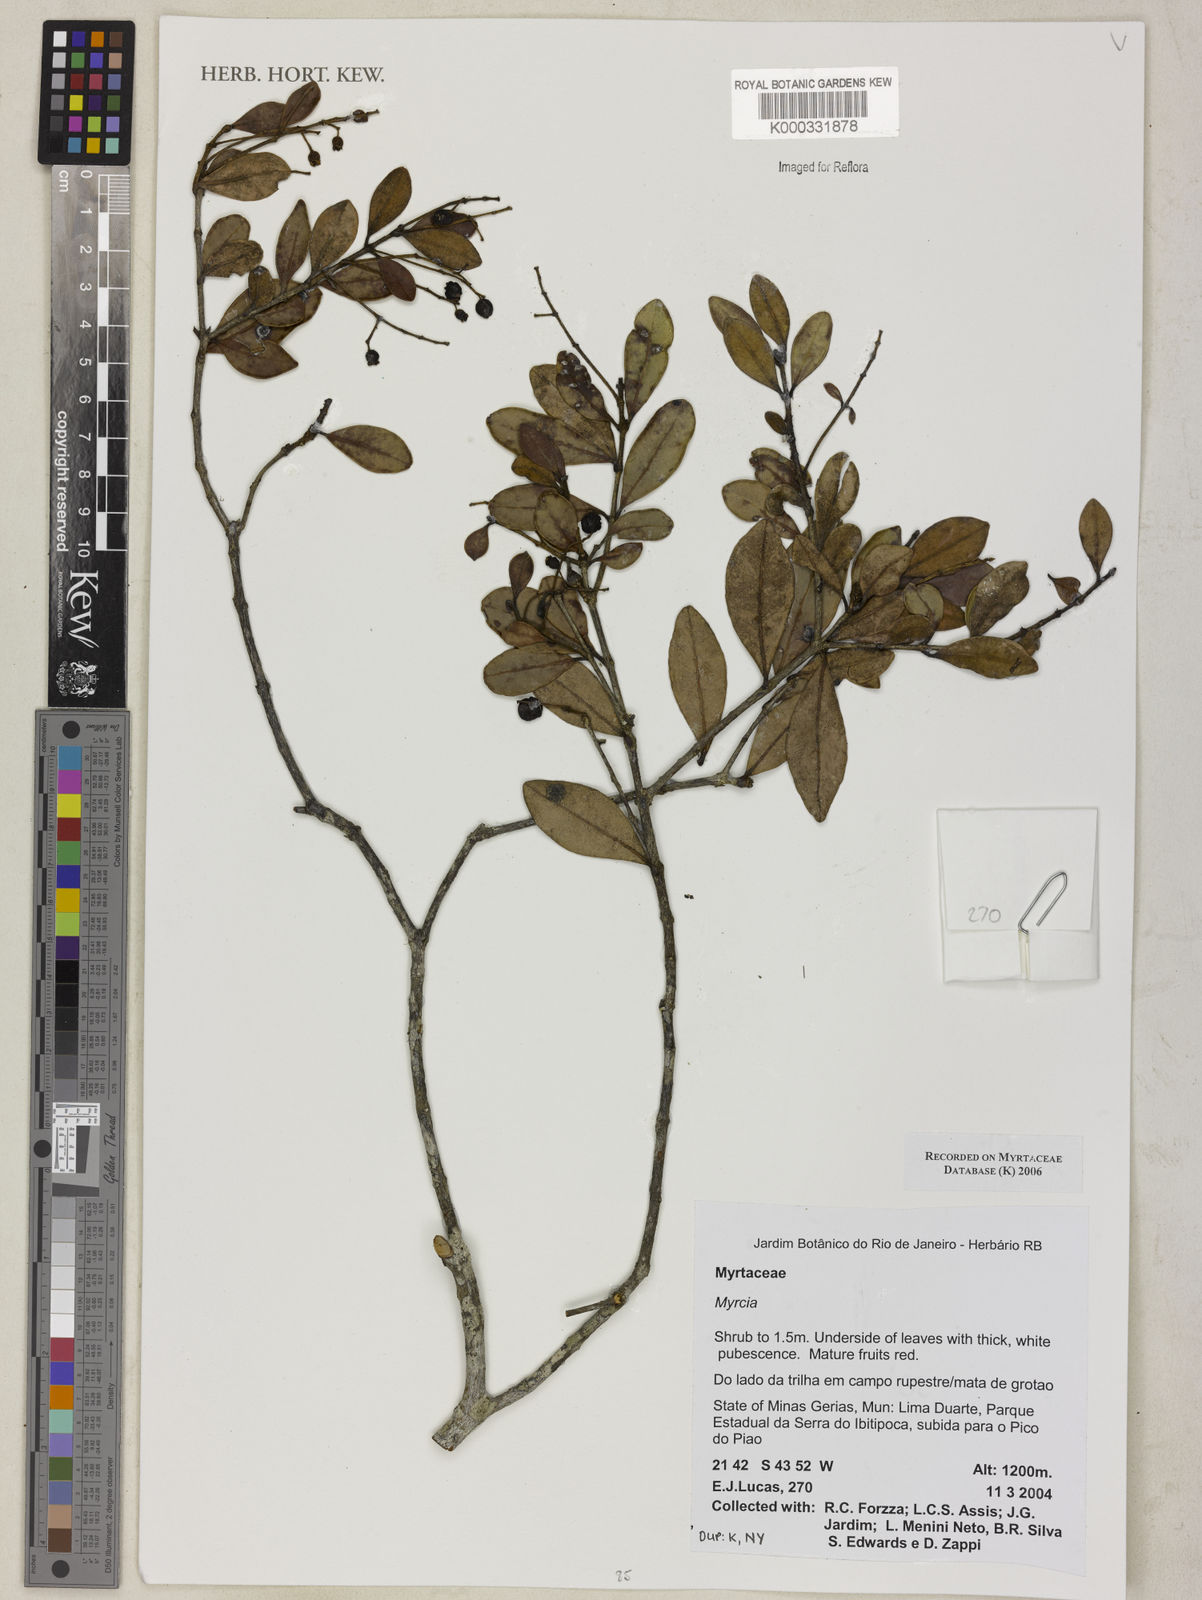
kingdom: Plantae
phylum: Tracheophyta
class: Magnoliopsida
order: Myrtales
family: Myrtaceae
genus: Myrcia
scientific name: Myrcia guianensis
